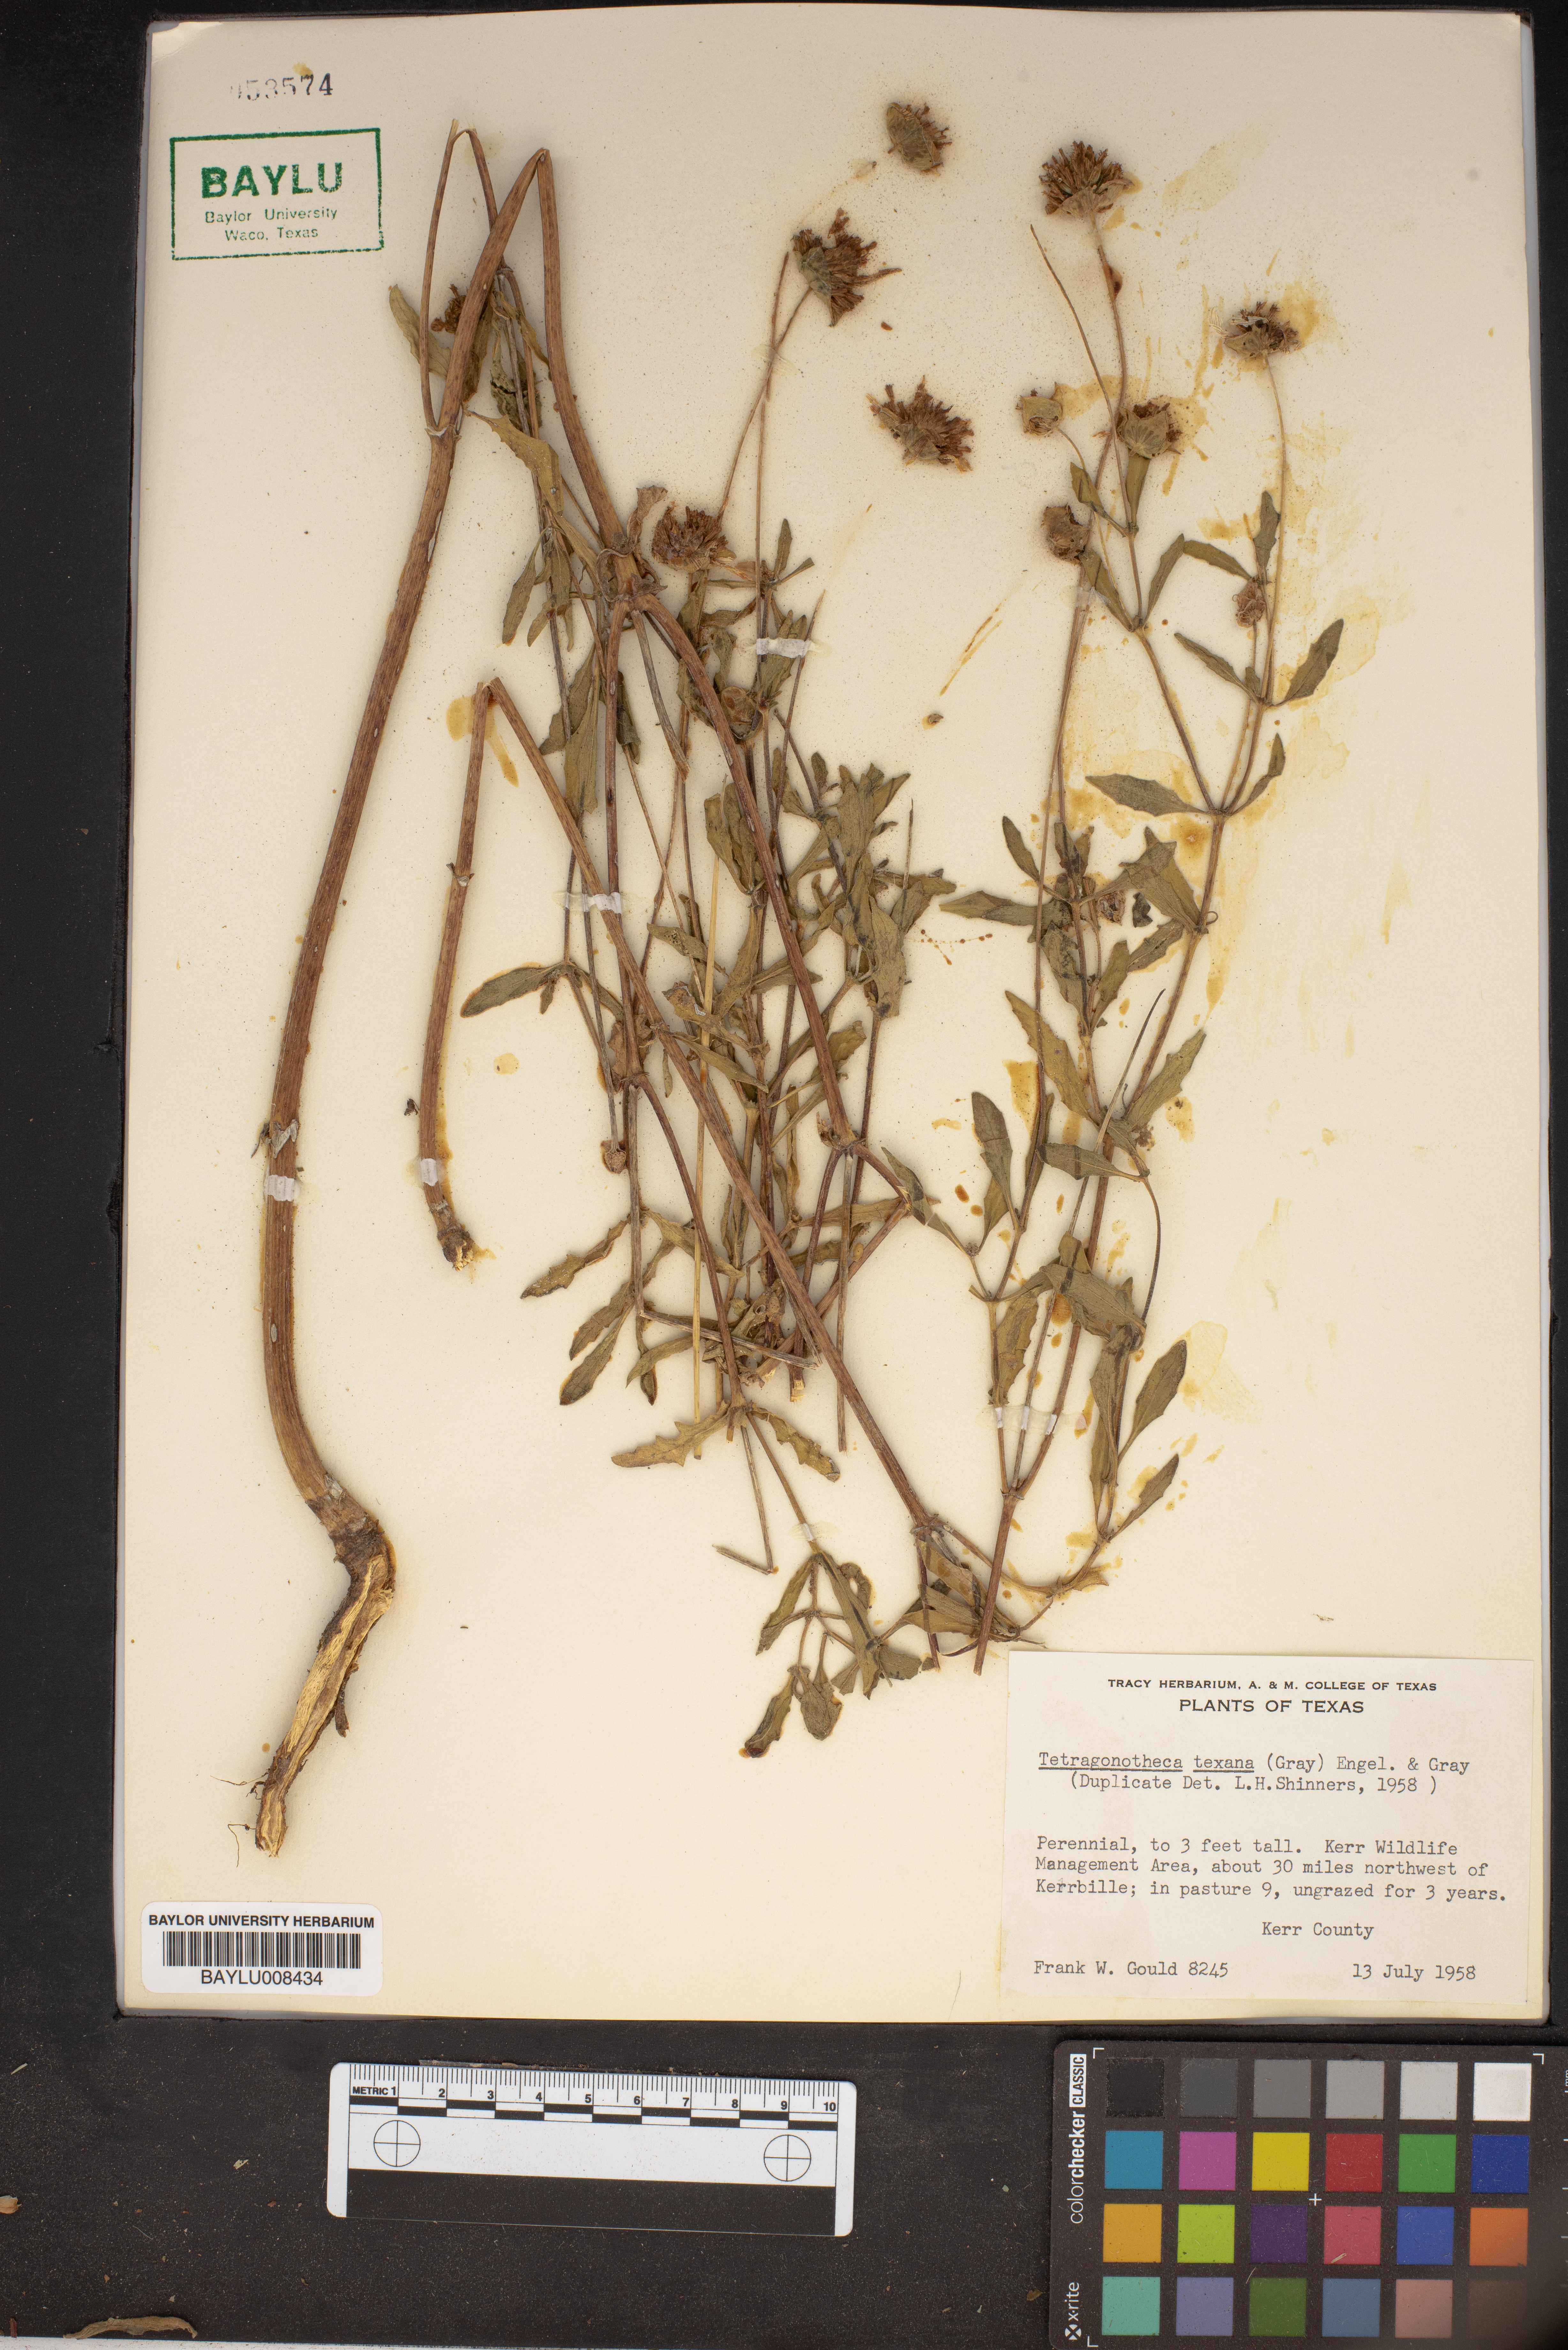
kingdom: Plantae
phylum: Tracheophyta
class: Magnoliopsida
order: Asterales
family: Asteraceae
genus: Tetragonotheca
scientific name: Tetragonotheca texana
